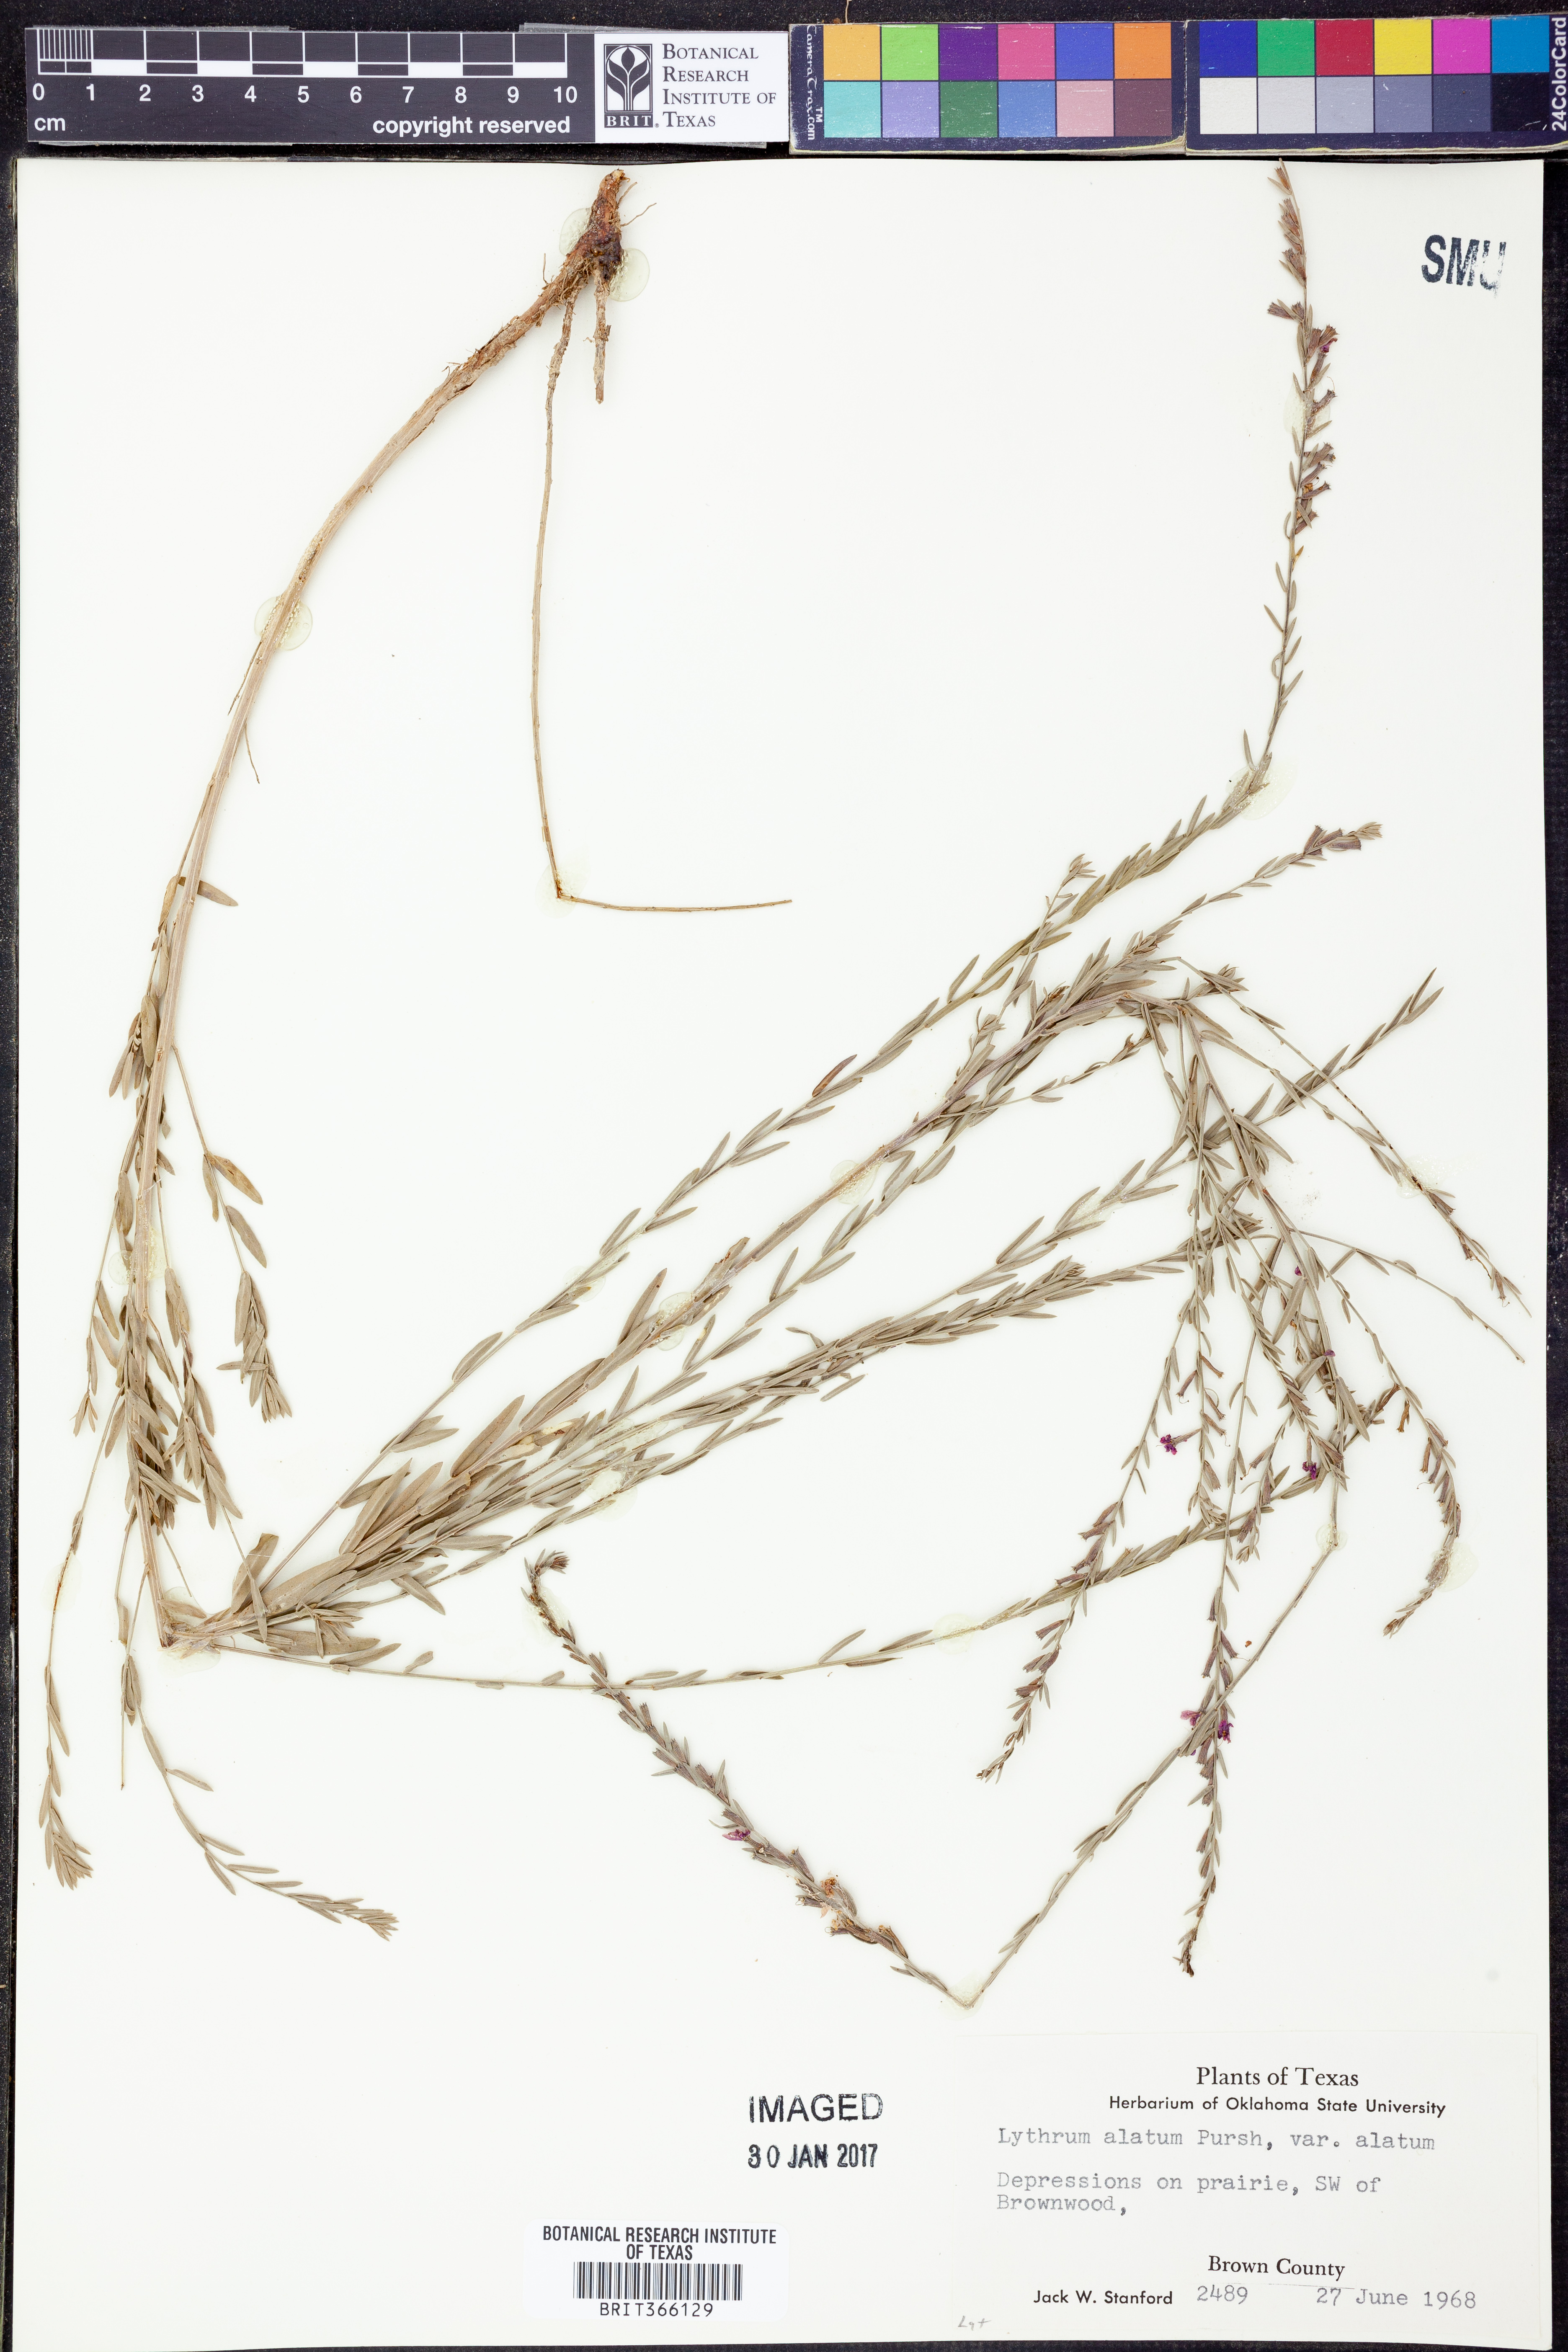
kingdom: Plantae
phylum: Tracheophyta
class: Magnoliopsida
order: Myrtales
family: Lythraceae
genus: Lythrum
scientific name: Lythrum alatum
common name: Winged loosestrife
